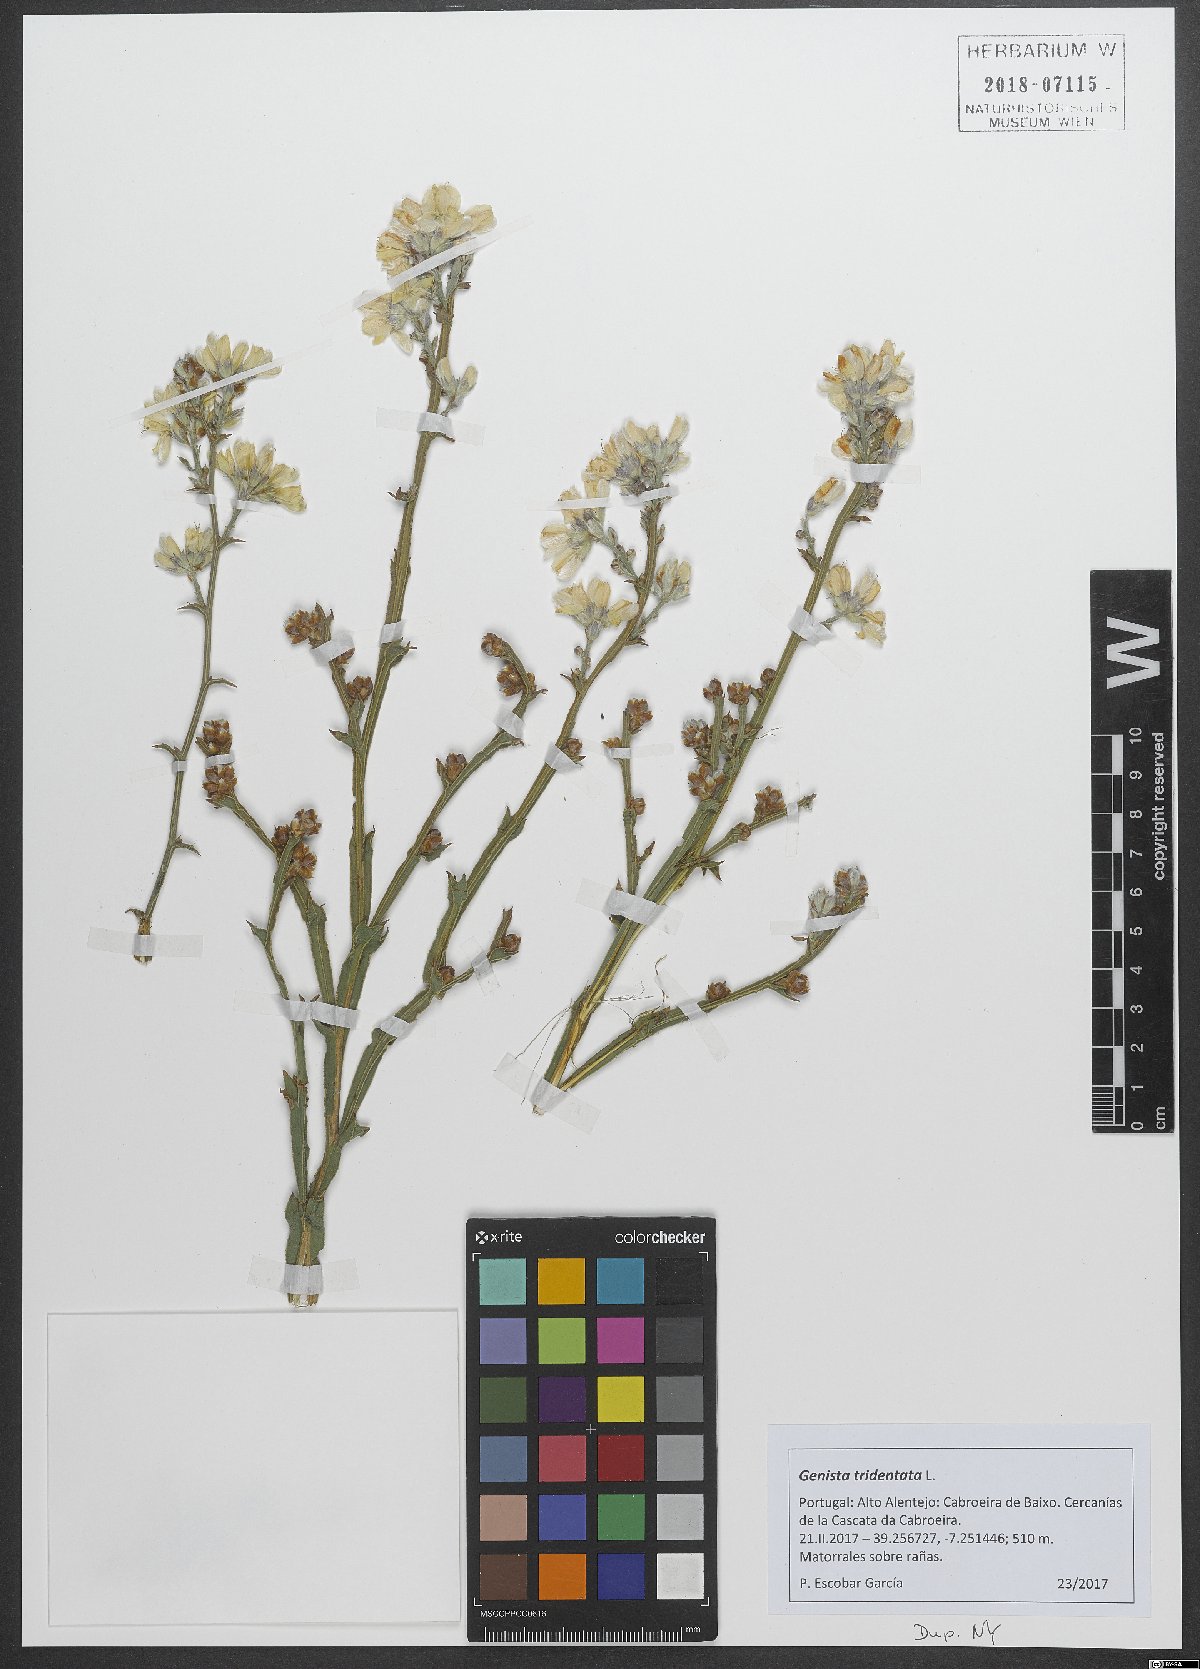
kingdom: Plantae
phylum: Tracheophyta
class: Magnoliopsida
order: Fabales
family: Fabaceae
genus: Genista
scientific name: Genista tridentata
